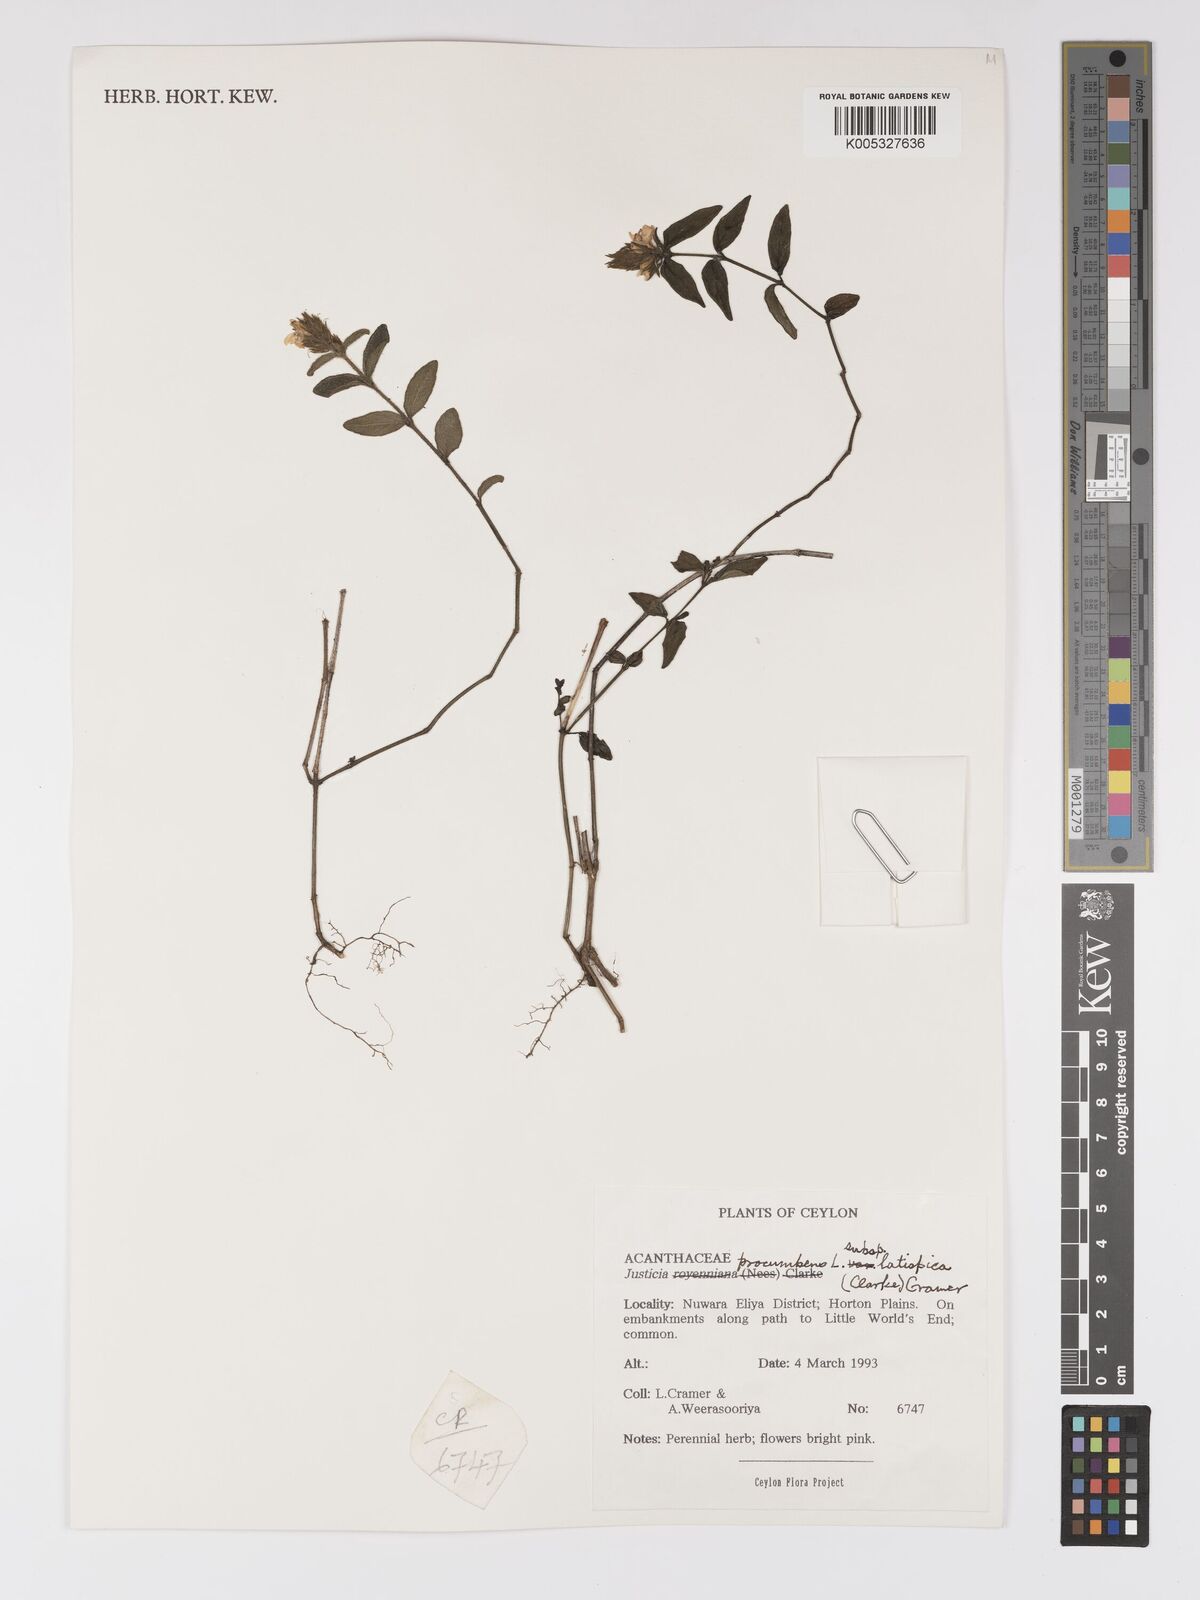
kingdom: Plantae
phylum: Tracheophyta
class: Magnoliopsida
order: Lamiales
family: Acanthaceae
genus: Rostellularia
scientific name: Rostellularia latispica
